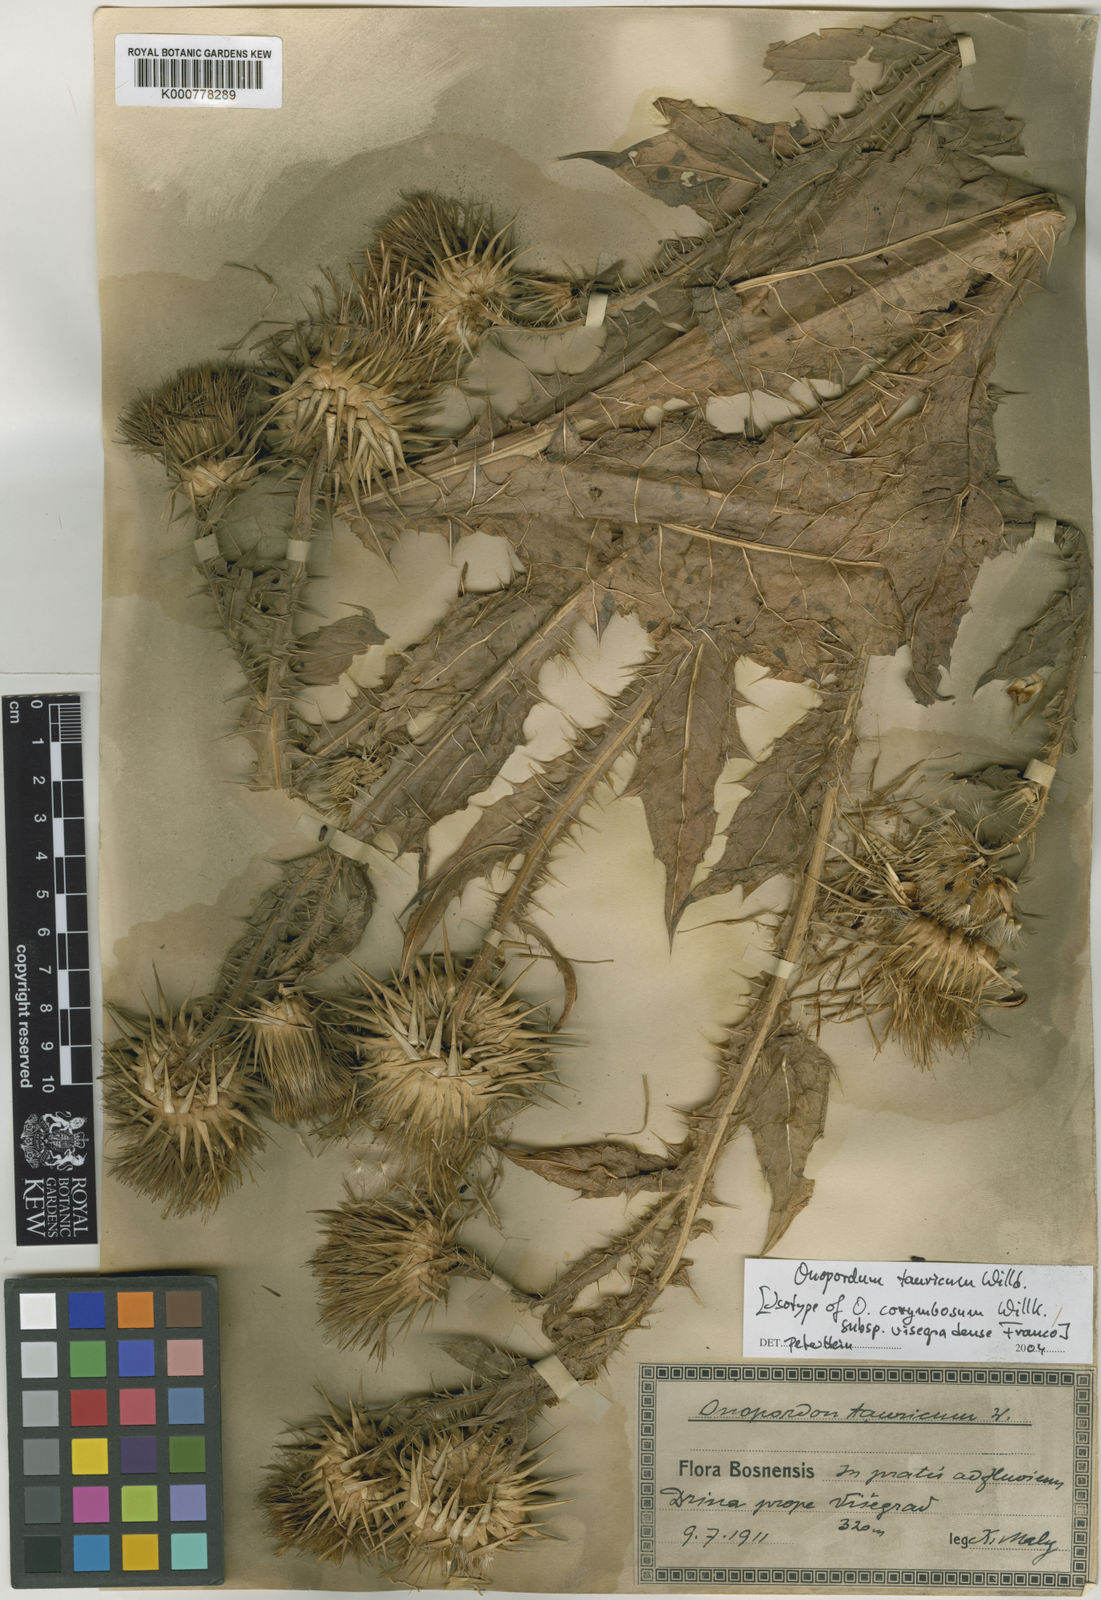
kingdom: Plantae
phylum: Tracheophyta
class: Magnoliopsida
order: Asterales
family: Asteraceae
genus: Onopordum
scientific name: Onopordum tauricum
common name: Bull cottonthistle
